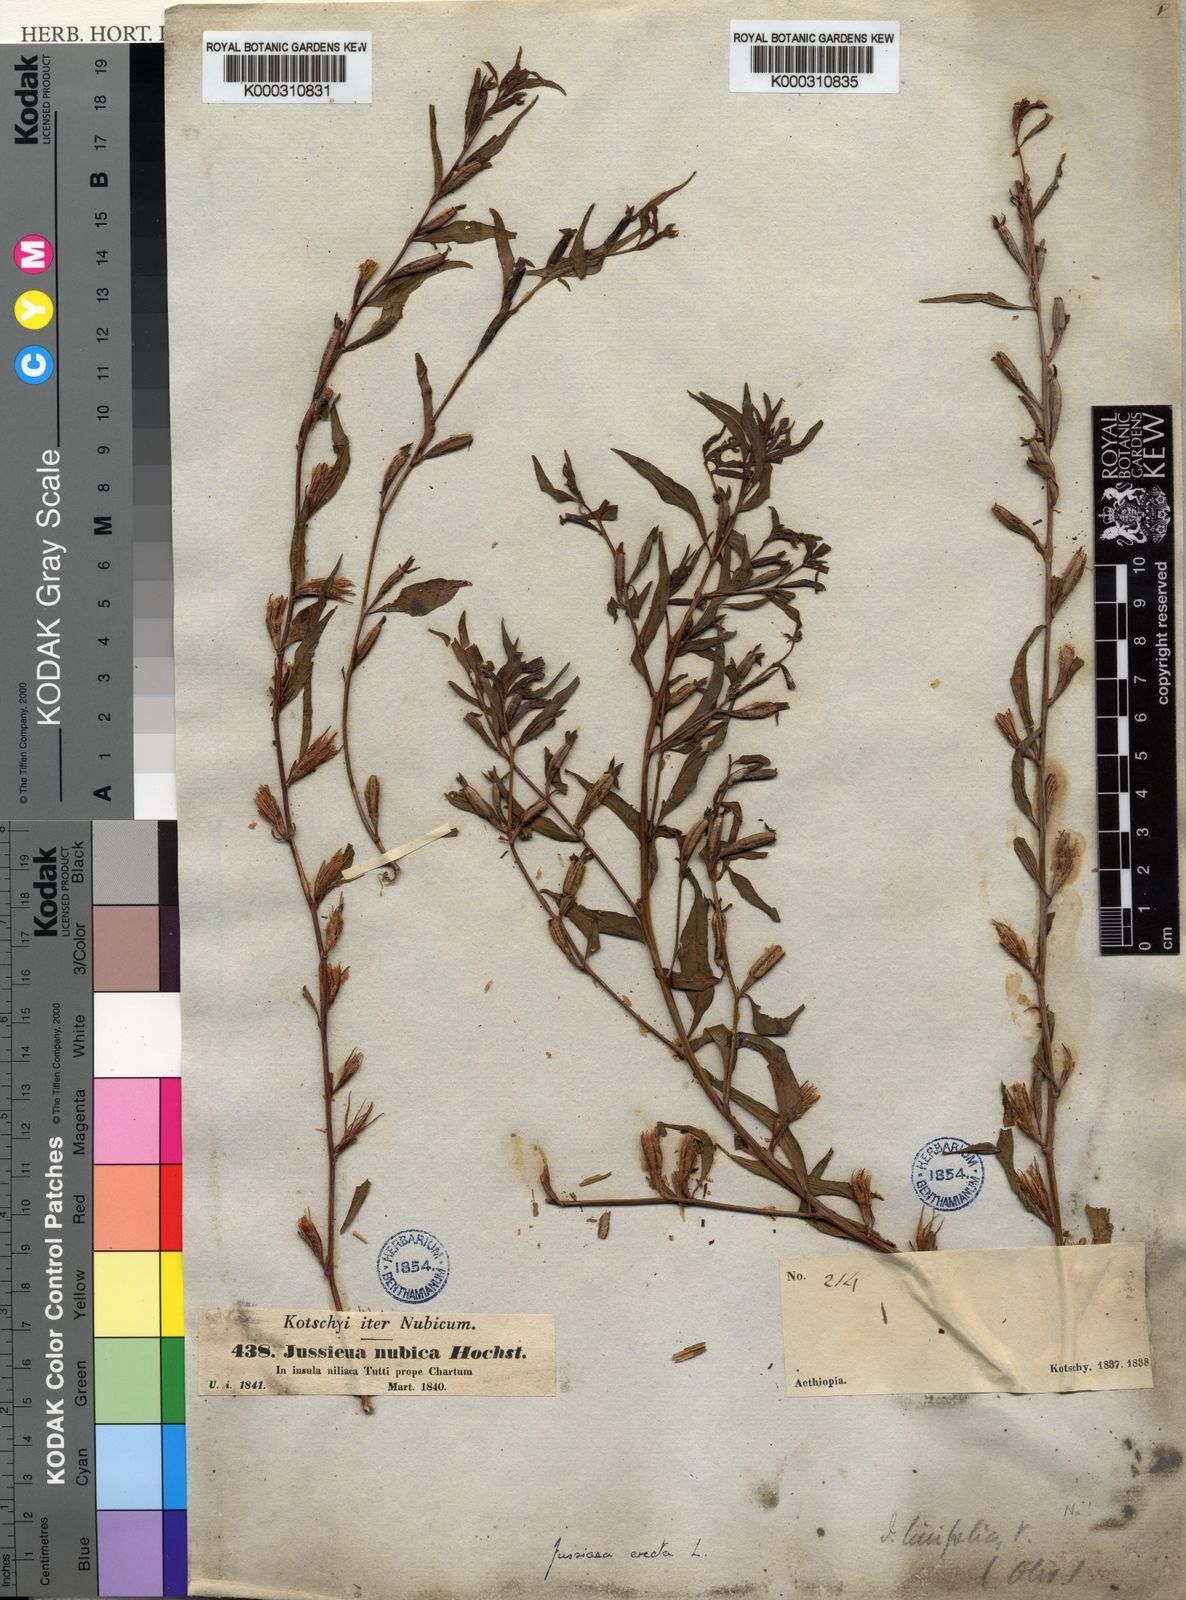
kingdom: Plantae
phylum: Tracheophyta
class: Magnoliopsida
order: Myrtales
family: Onagraceae
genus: Ludwigia
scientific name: Ludwigia erecta
